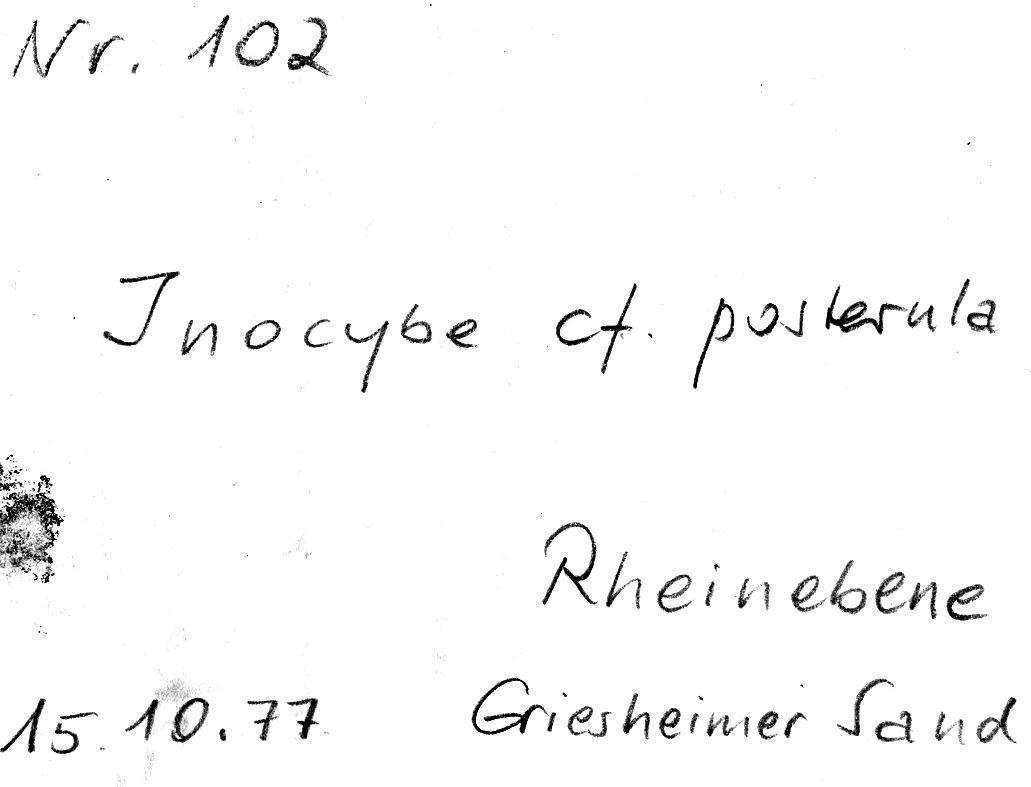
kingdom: Fungi
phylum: Basidiomycota
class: Agaricomycetes
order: Agaricales
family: Inocybaceae
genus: Inocybe
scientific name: Inocybe posterula
